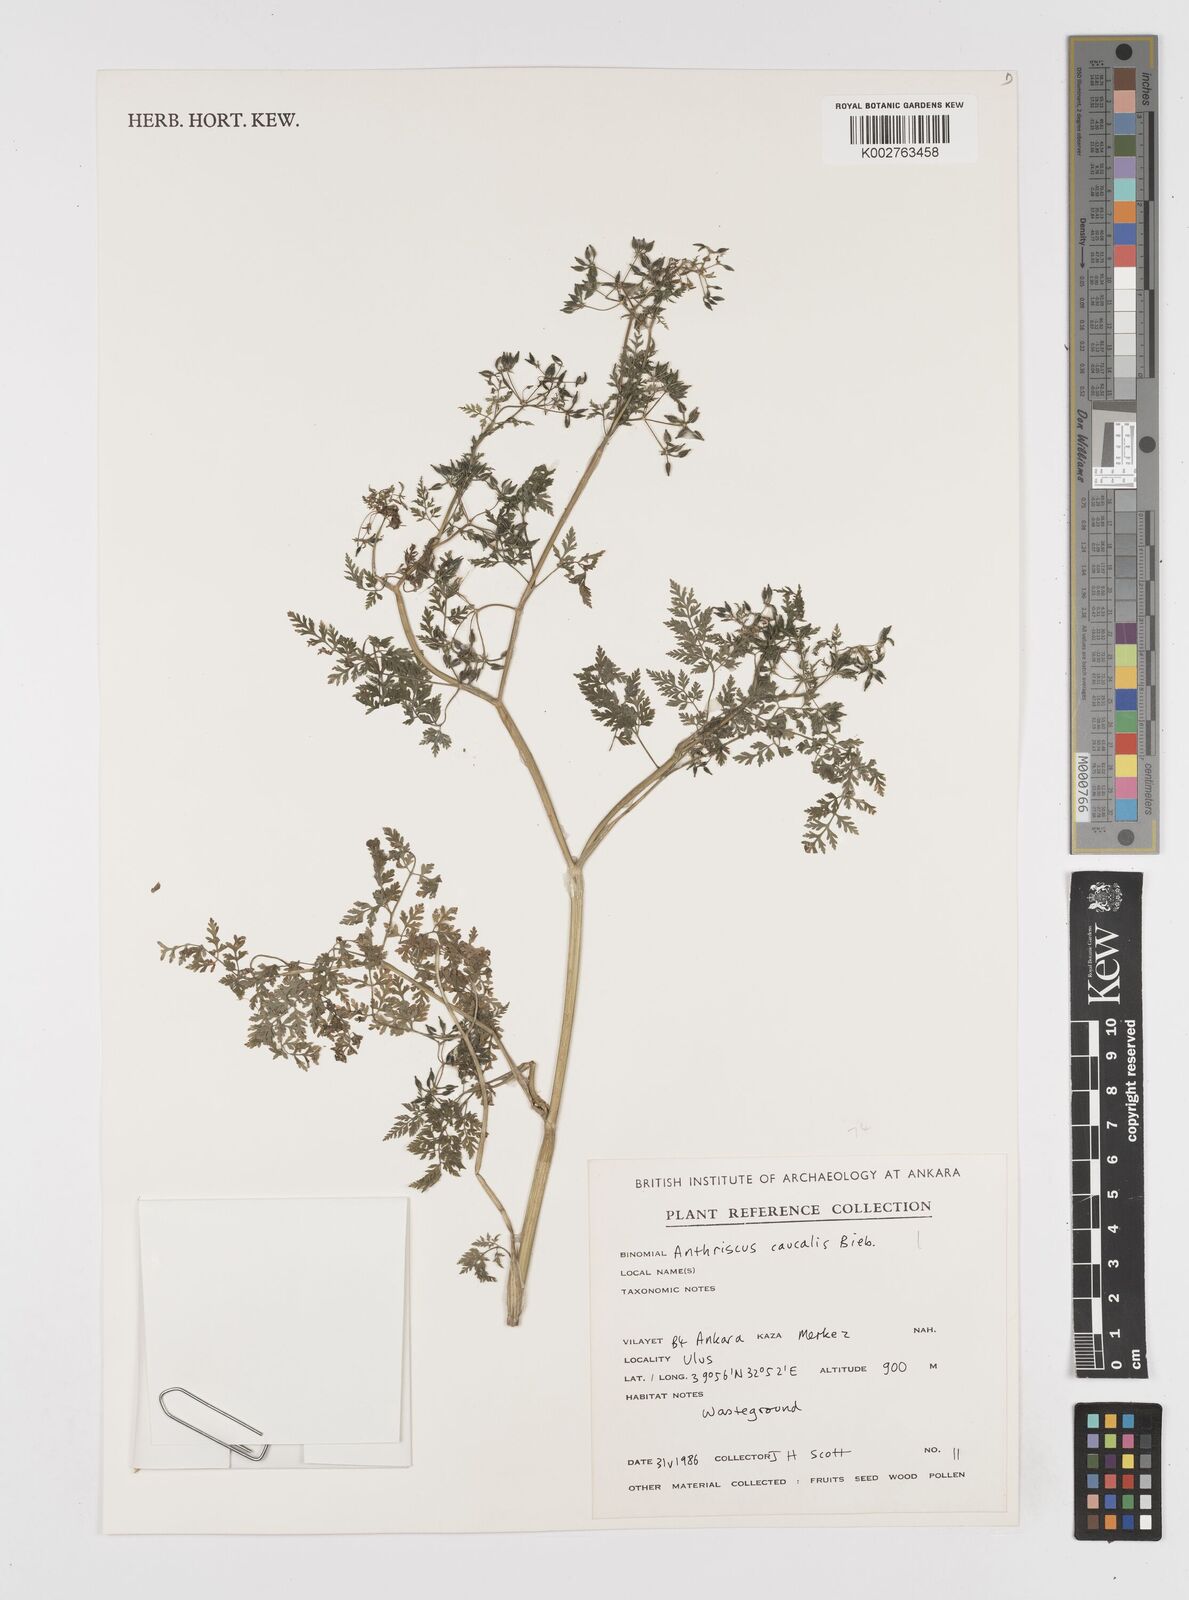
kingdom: Plantae
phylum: Tracheophyta
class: Magnoliopsida
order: Apiales
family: Apiaceae
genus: Anthriscus
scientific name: Anthriscus caucalis
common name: Bur chervil
